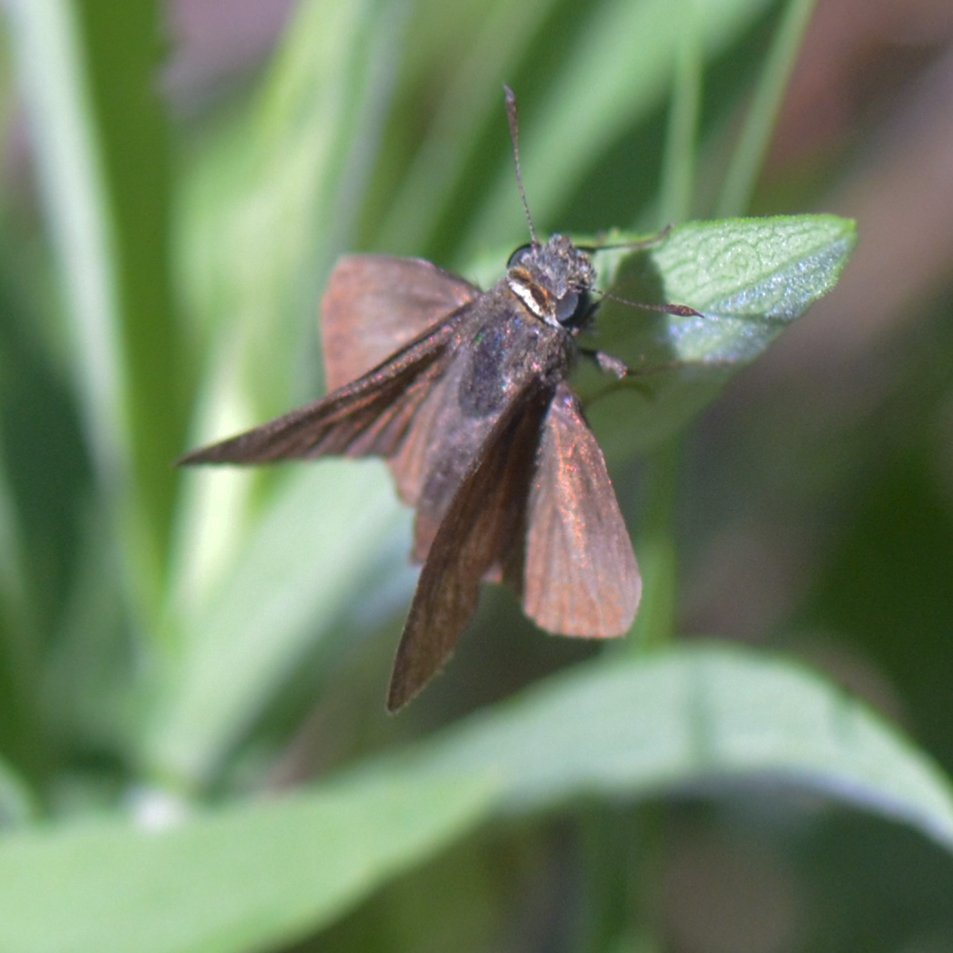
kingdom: Animalia
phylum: Arthropoda
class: Insecta
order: Lepidoptera
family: Hesperiidae
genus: Euphyes
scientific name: Euphyes vestris
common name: Dun Skipper
